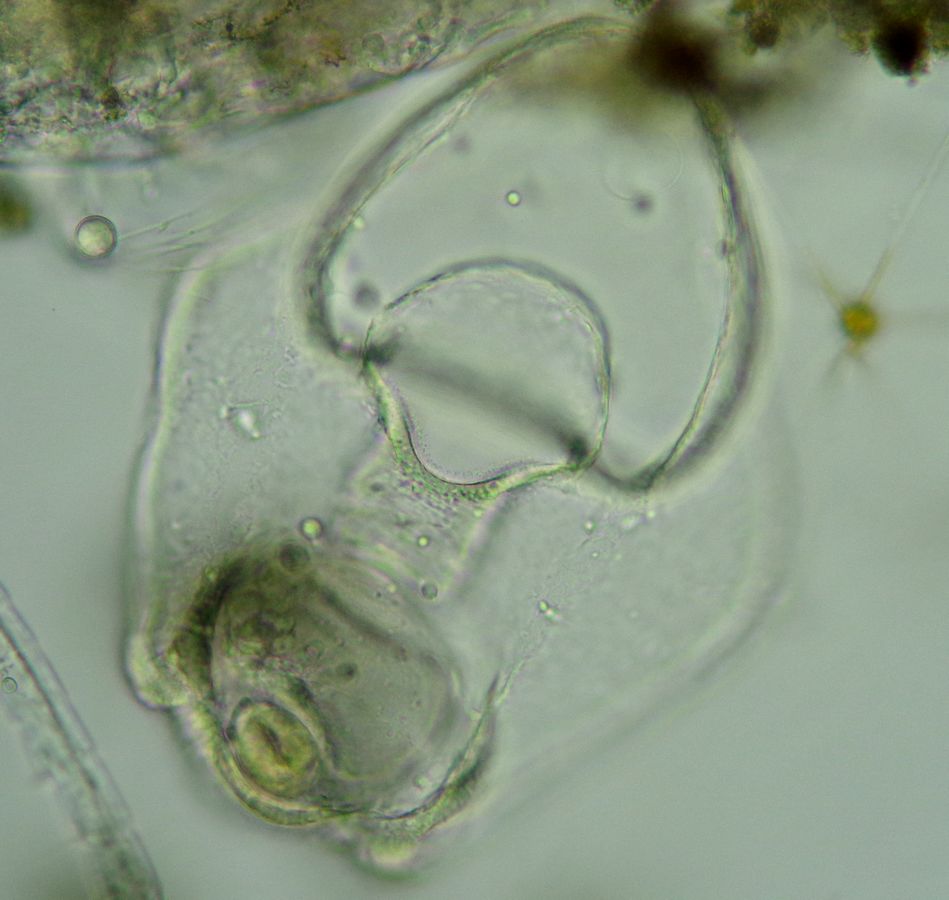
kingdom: Animalia
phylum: Echinodermata
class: Asteroidea
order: Forcipulatida
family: Asteriidae
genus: Asterias
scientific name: Asterias rubens
